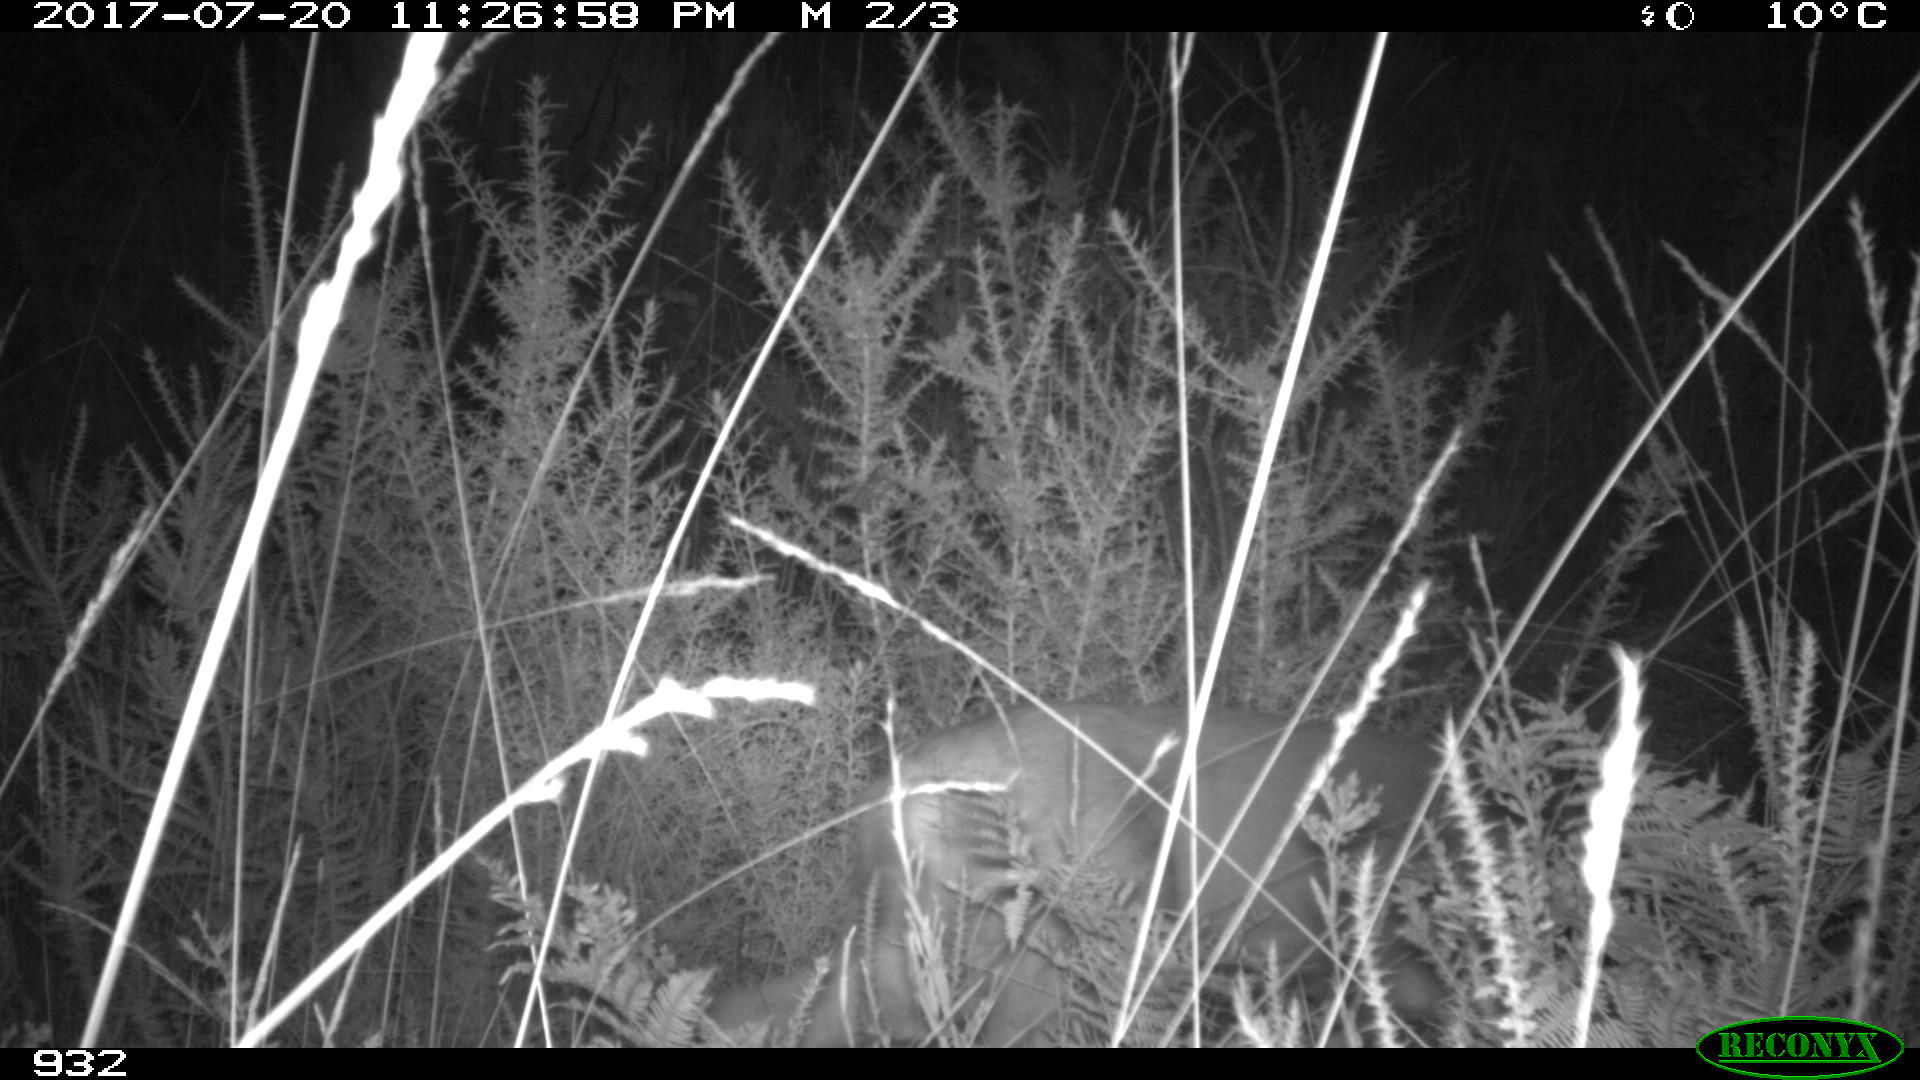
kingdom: Animalia
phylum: Chordata
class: Mammalia
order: Artiodactyla
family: Cervidae
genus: Capreolus
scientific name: Capreolus capreolus
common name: Western roe deer
